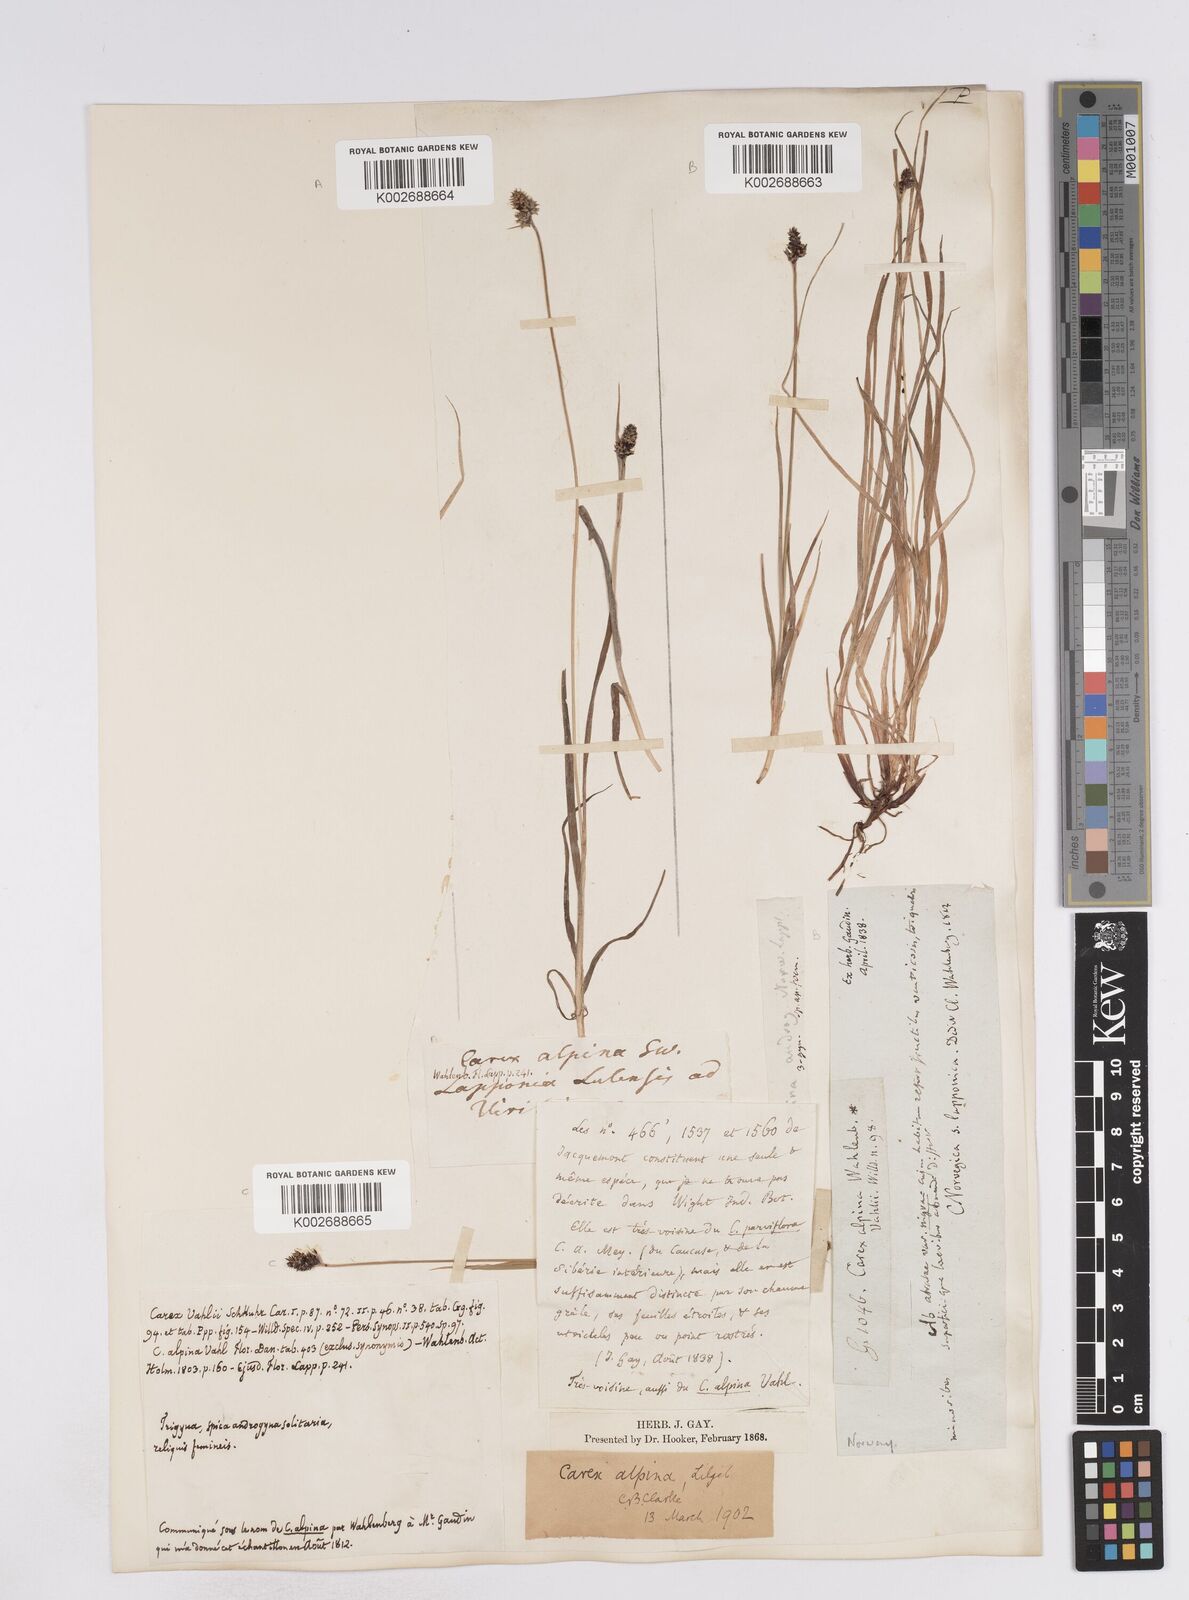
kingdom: Plantae
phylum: Tracheophyta
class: Liliopsida
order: Poales
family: Cyperaceae
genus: Carex
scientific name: Carex media
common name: Alpine sedge
